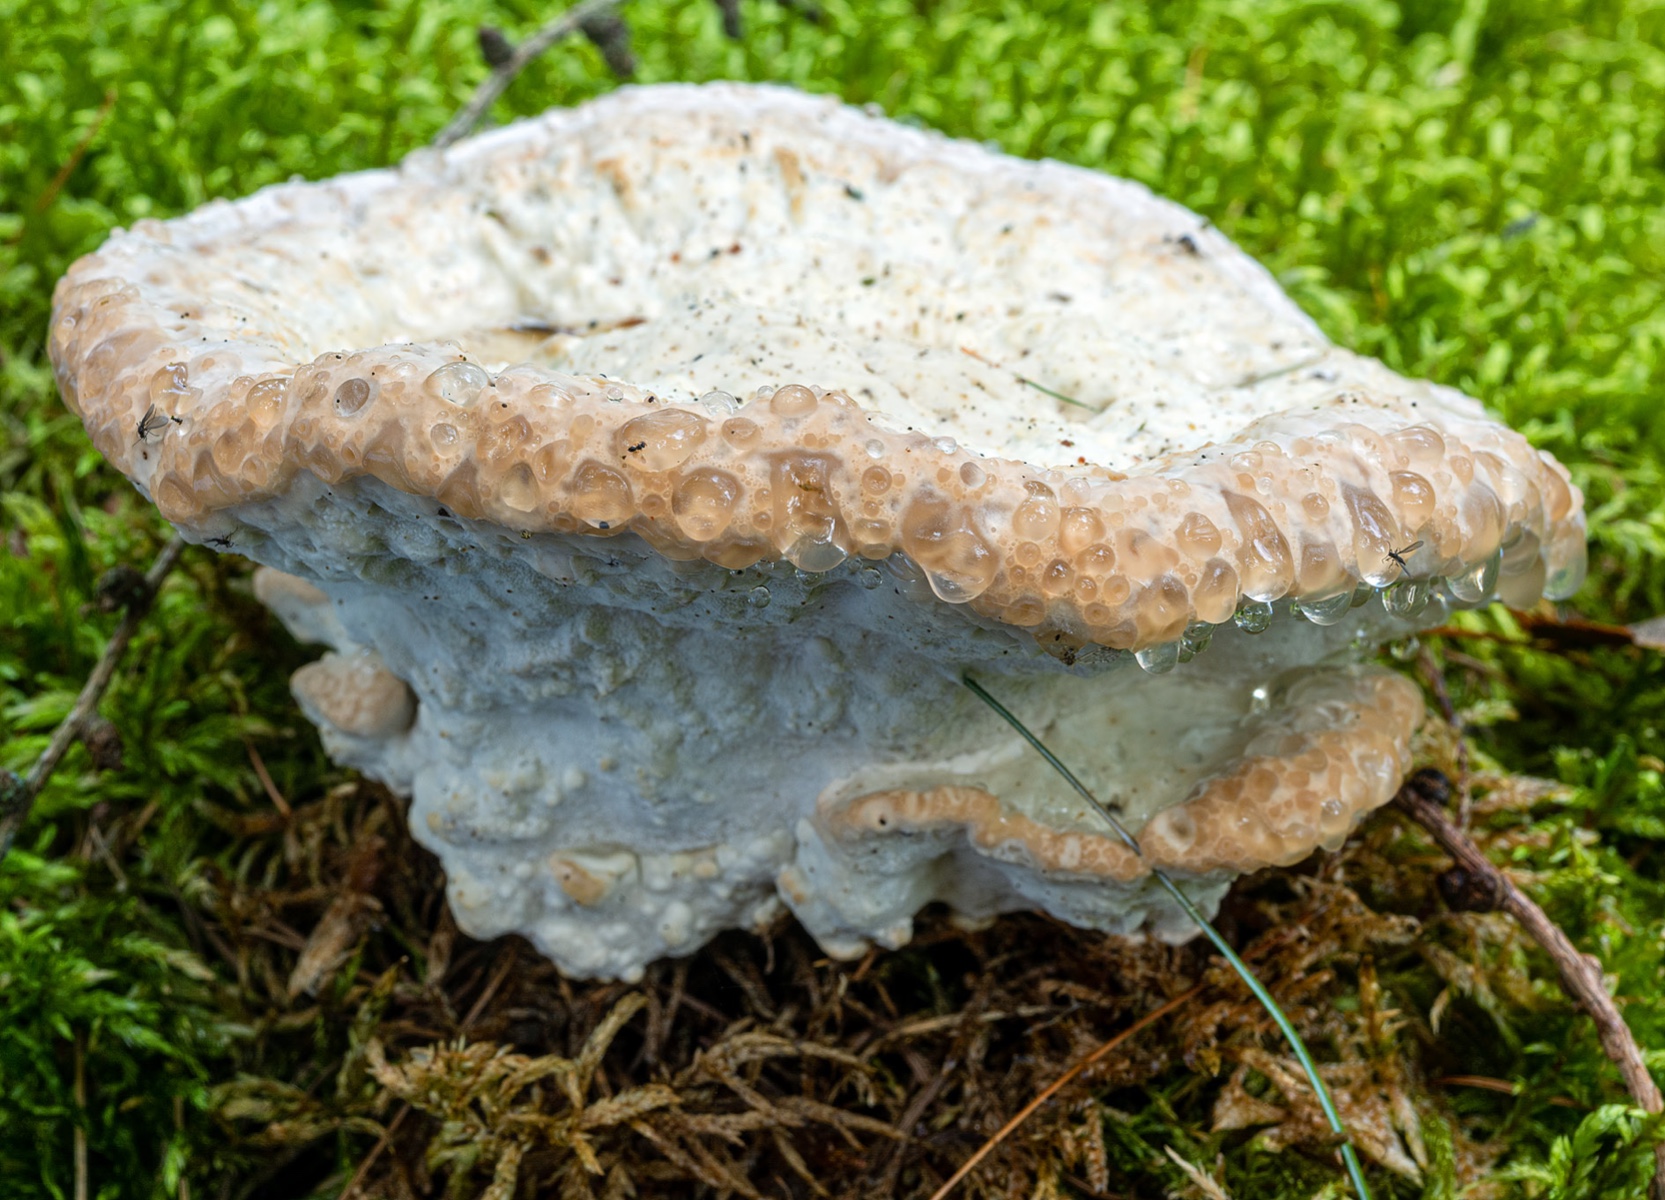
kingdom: Fungi
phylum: Basidiomycota
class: Agaricomycetes
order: Polyporales
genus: Calcipostia
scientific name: Calcipostia guttulata
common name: dråbe-kødporesvamp
